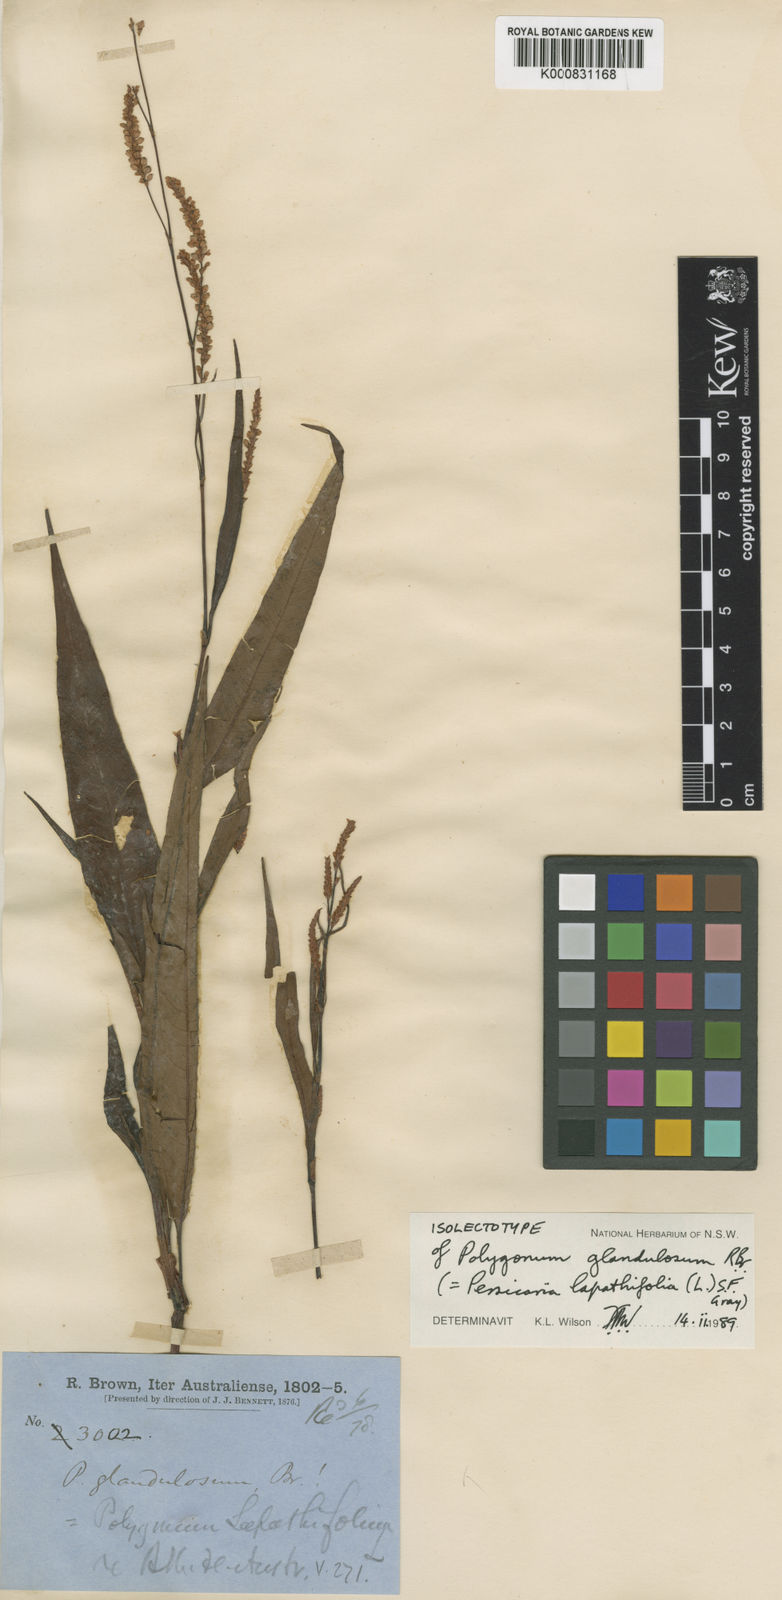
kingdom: Plantae
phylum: Tracheophyta
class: Magnoliopsida
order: Caryophyllales
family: Polygonaceae
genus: Persicaria
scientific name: Persicaria
